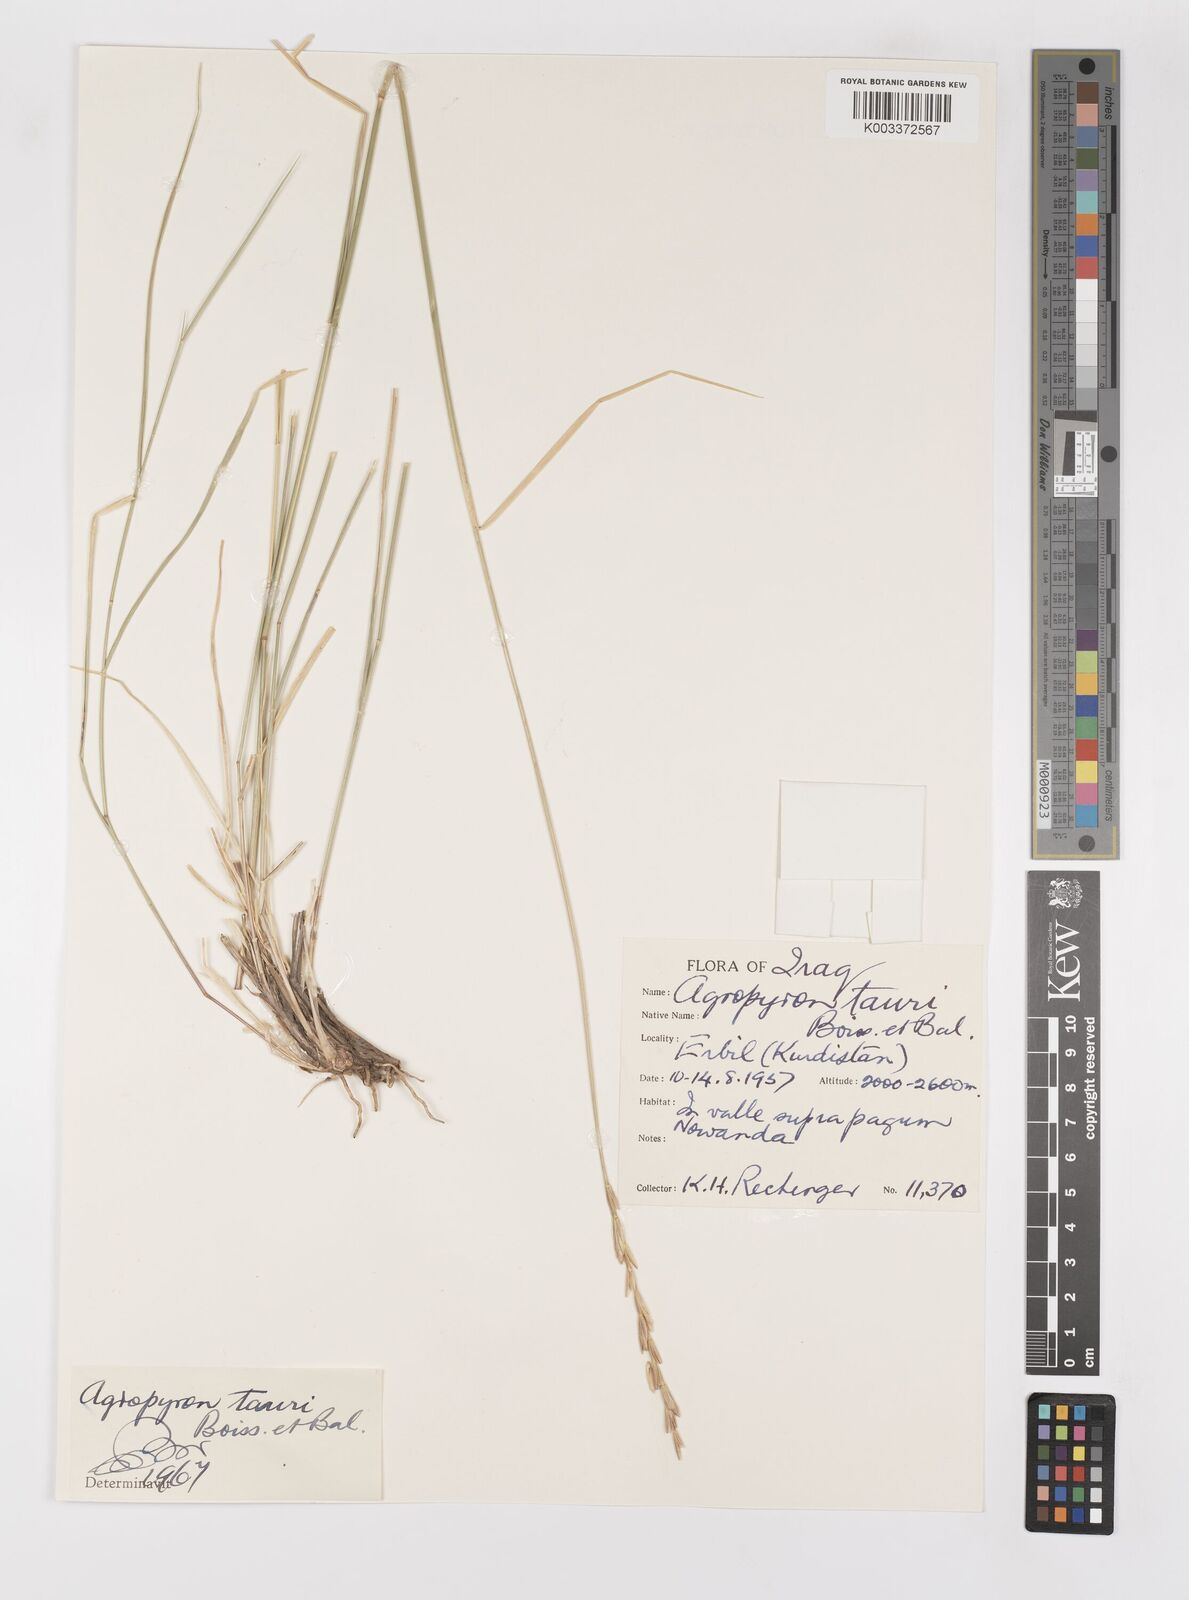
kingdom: Plantae
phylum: Tracheophyta
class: Liliopsida
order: Poales
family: Poaceae
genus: Pseudoroegneria
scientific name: Pseudoroegneria tauri
